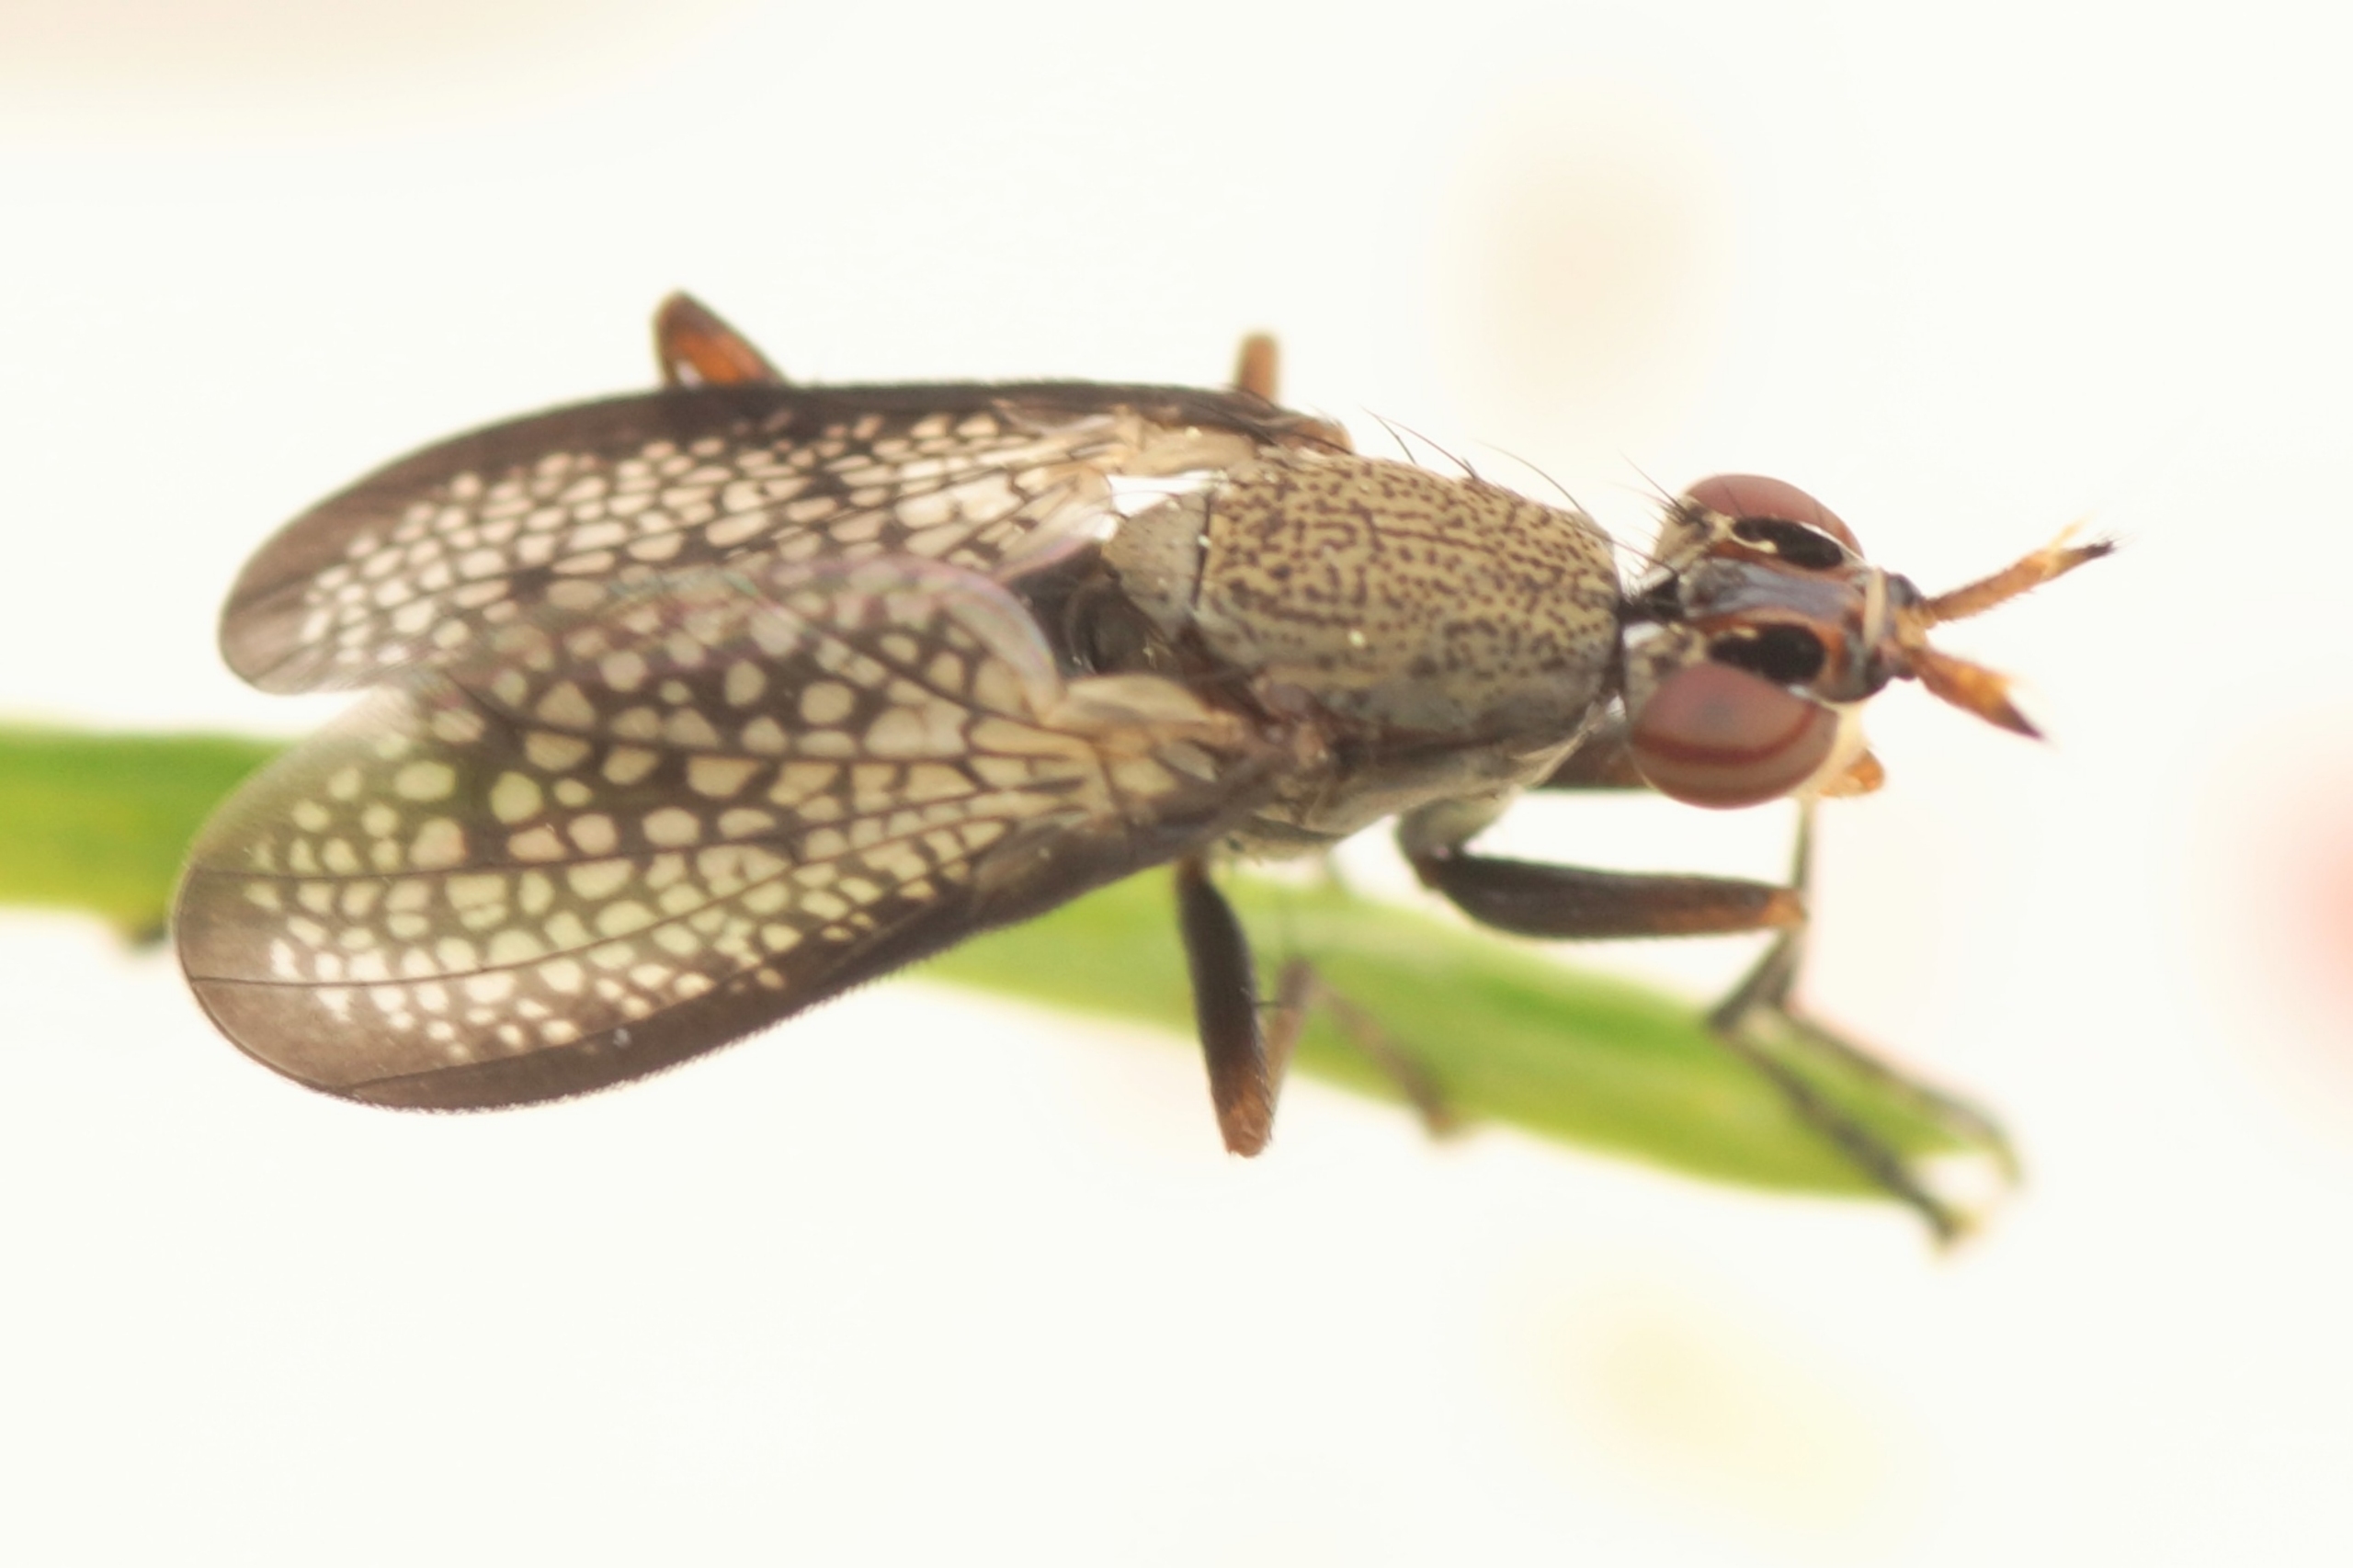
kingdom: Animalia
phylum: Arthropoda
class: Insecta
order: Diptera
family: Sciomyzidae
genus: Coremacera
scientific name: Coremacera marginata
